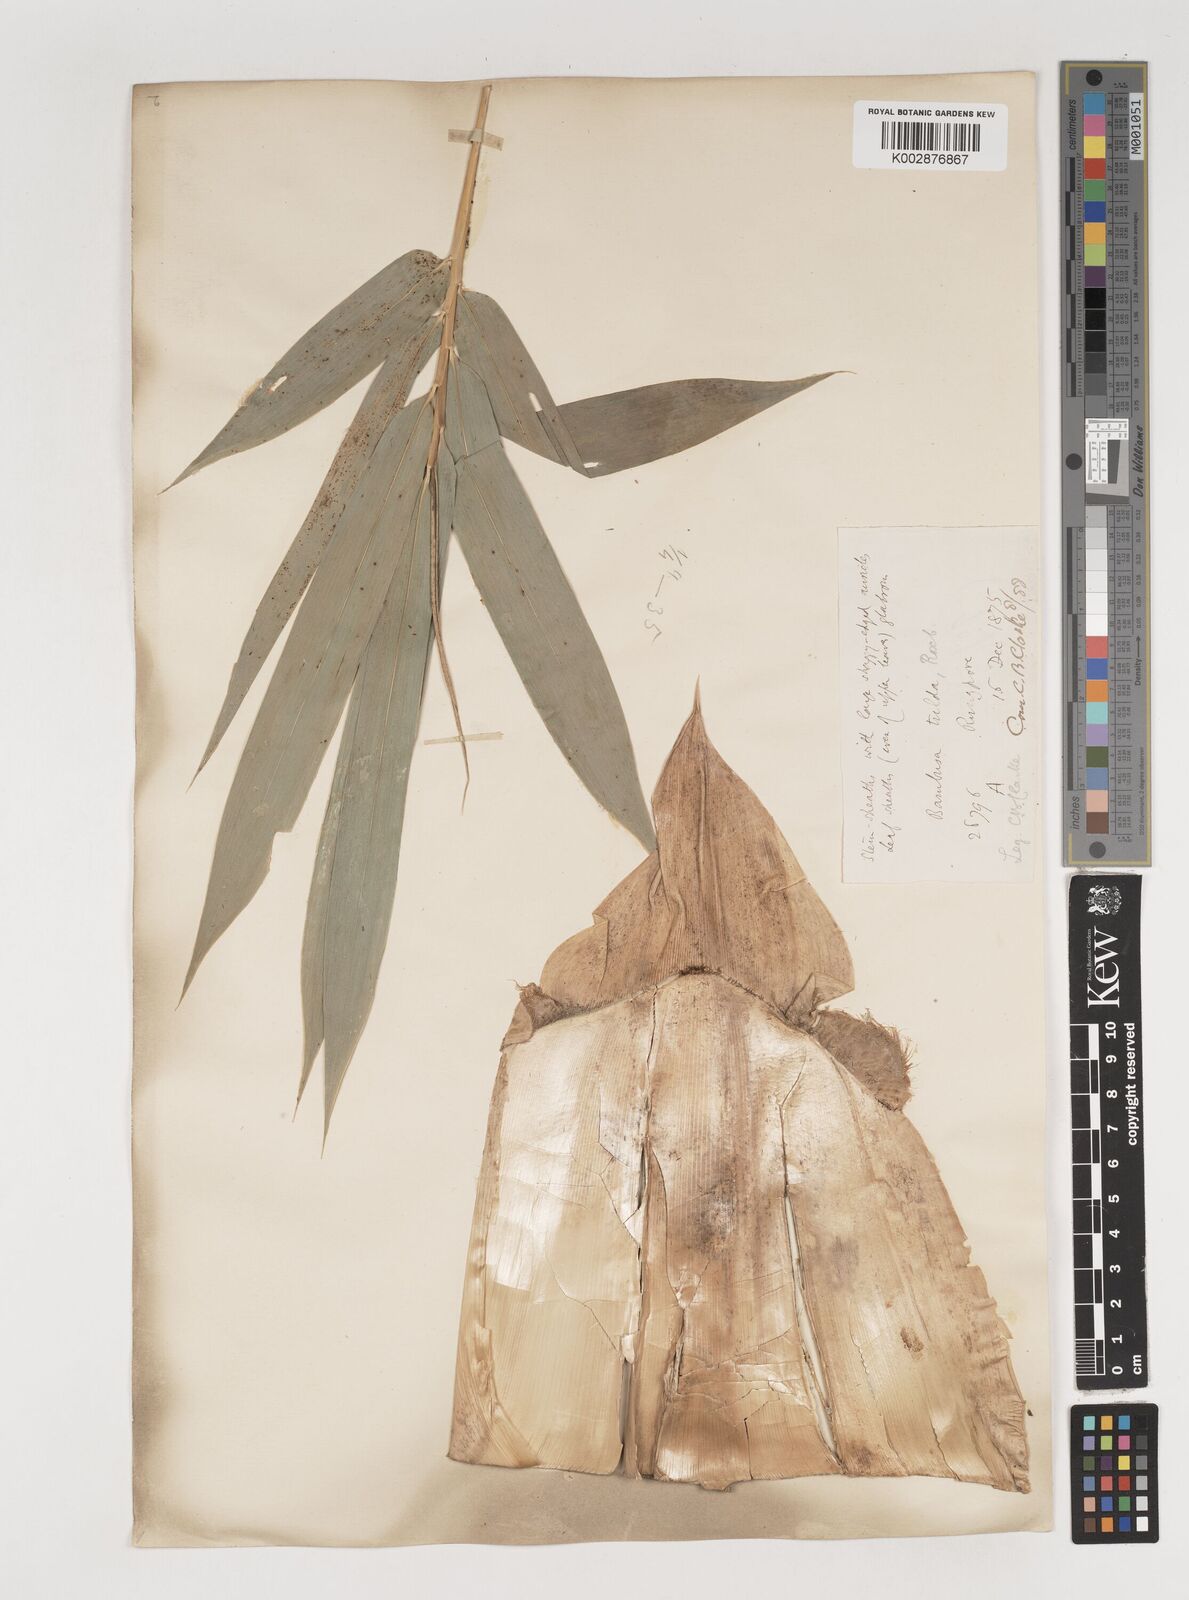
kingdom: Plantae
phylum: Tracheophyta
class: Liliopsida
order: Poales
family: Poaceae
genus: Bambusa
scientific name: Bambusa tuldoides
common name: Verdant bamboo
